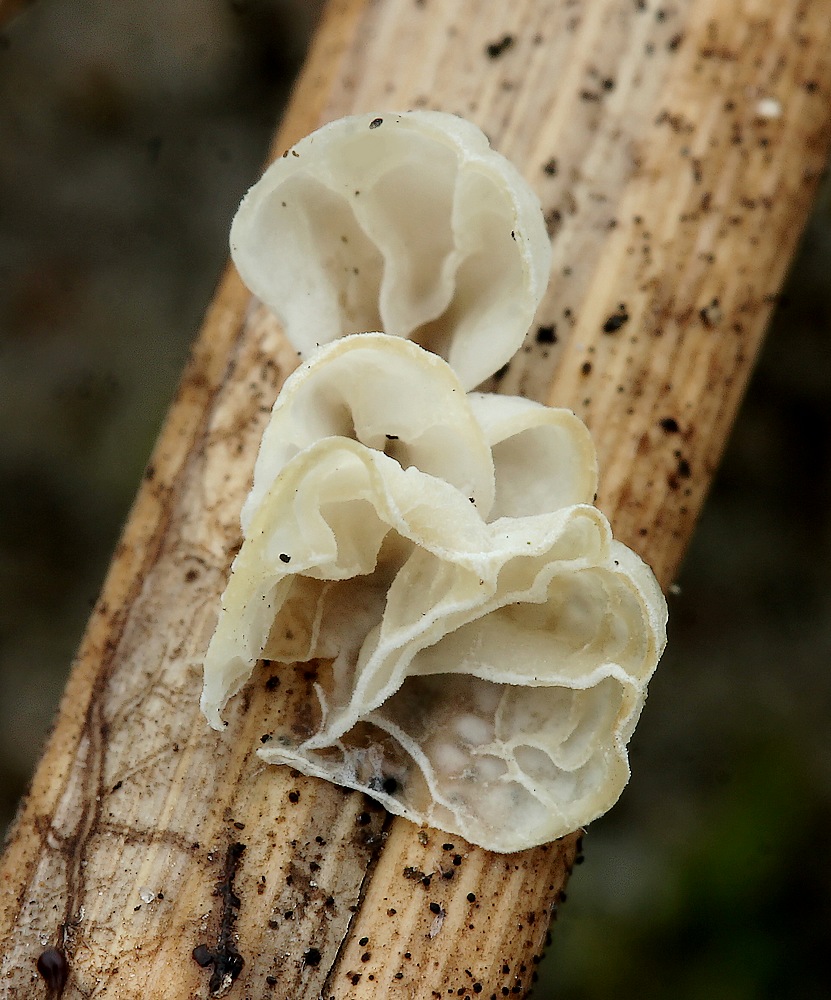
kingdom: Fungi
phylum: Basidiomycota
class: Agaricomycetes
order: Agaricales
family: Marasmiaceae
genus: Campanella
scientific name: Campanella caesia
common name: bruskøre
